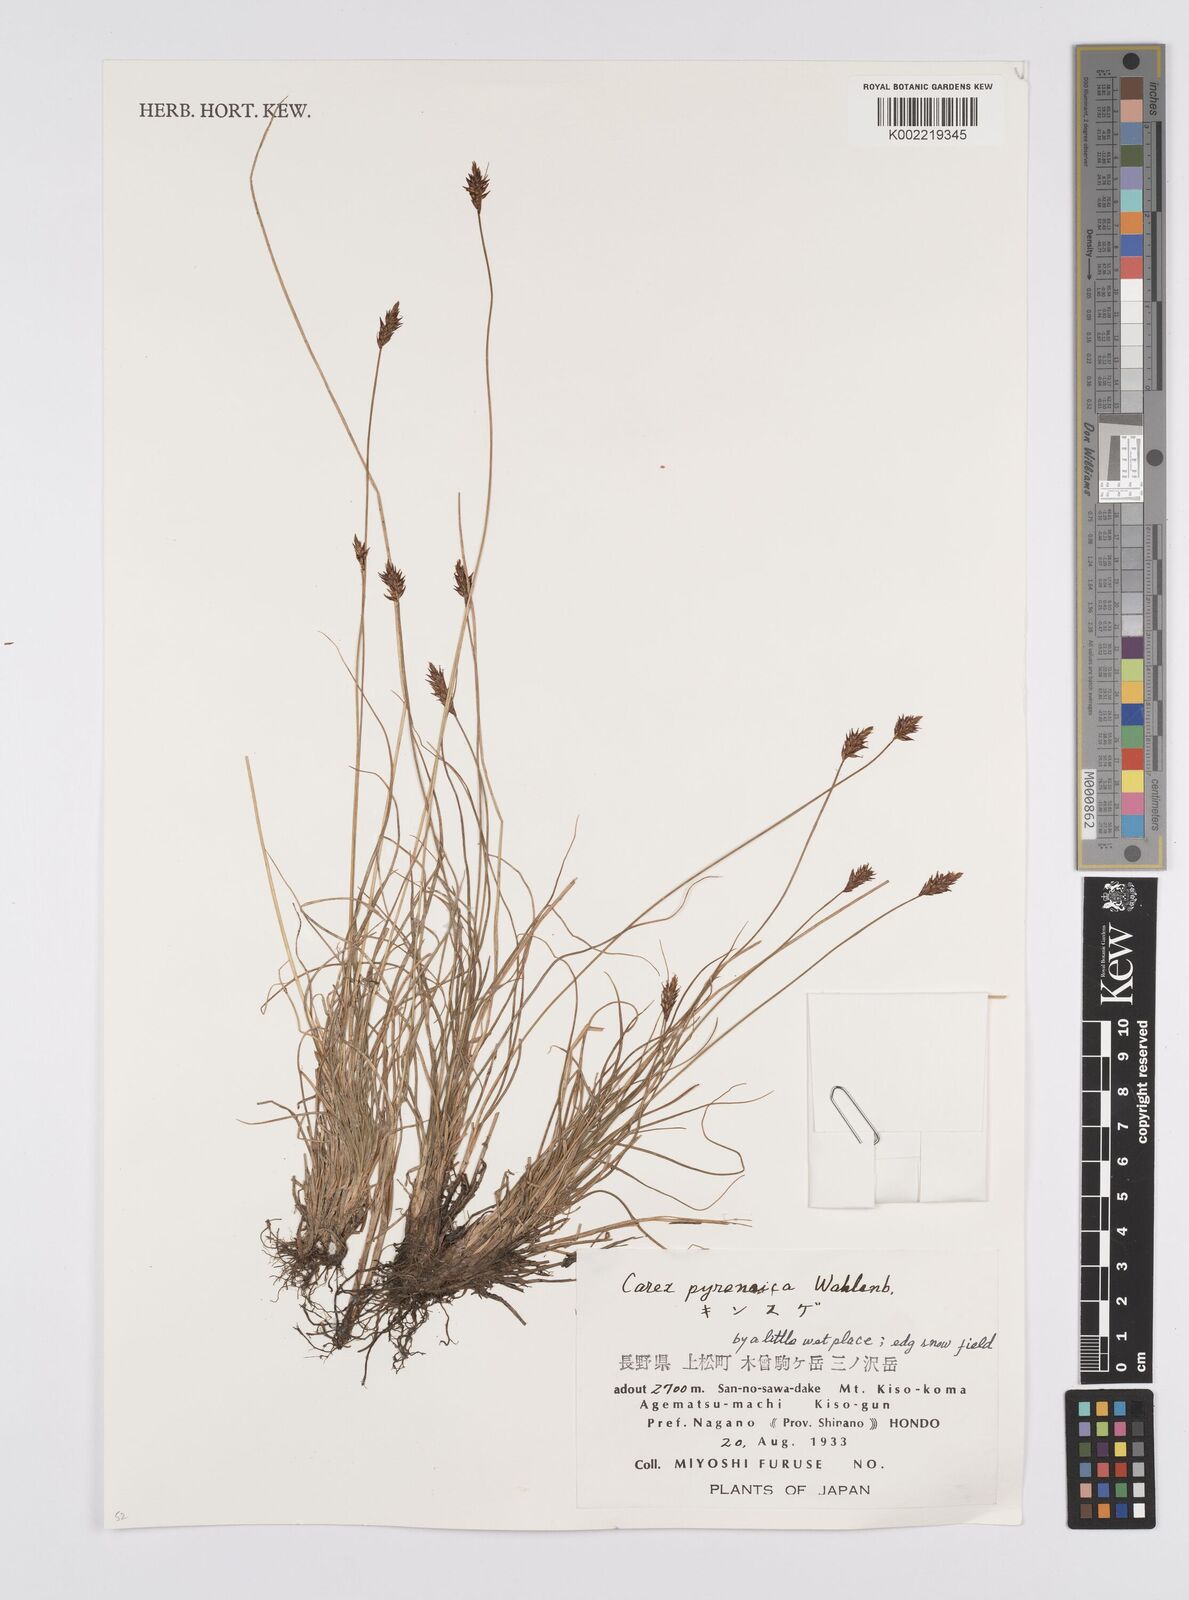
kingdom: Plantae
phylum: Tracheophyta
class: Liliopsida
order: Poales
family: Cyperaceae
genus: Carex
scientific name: Carex pyrenaica
